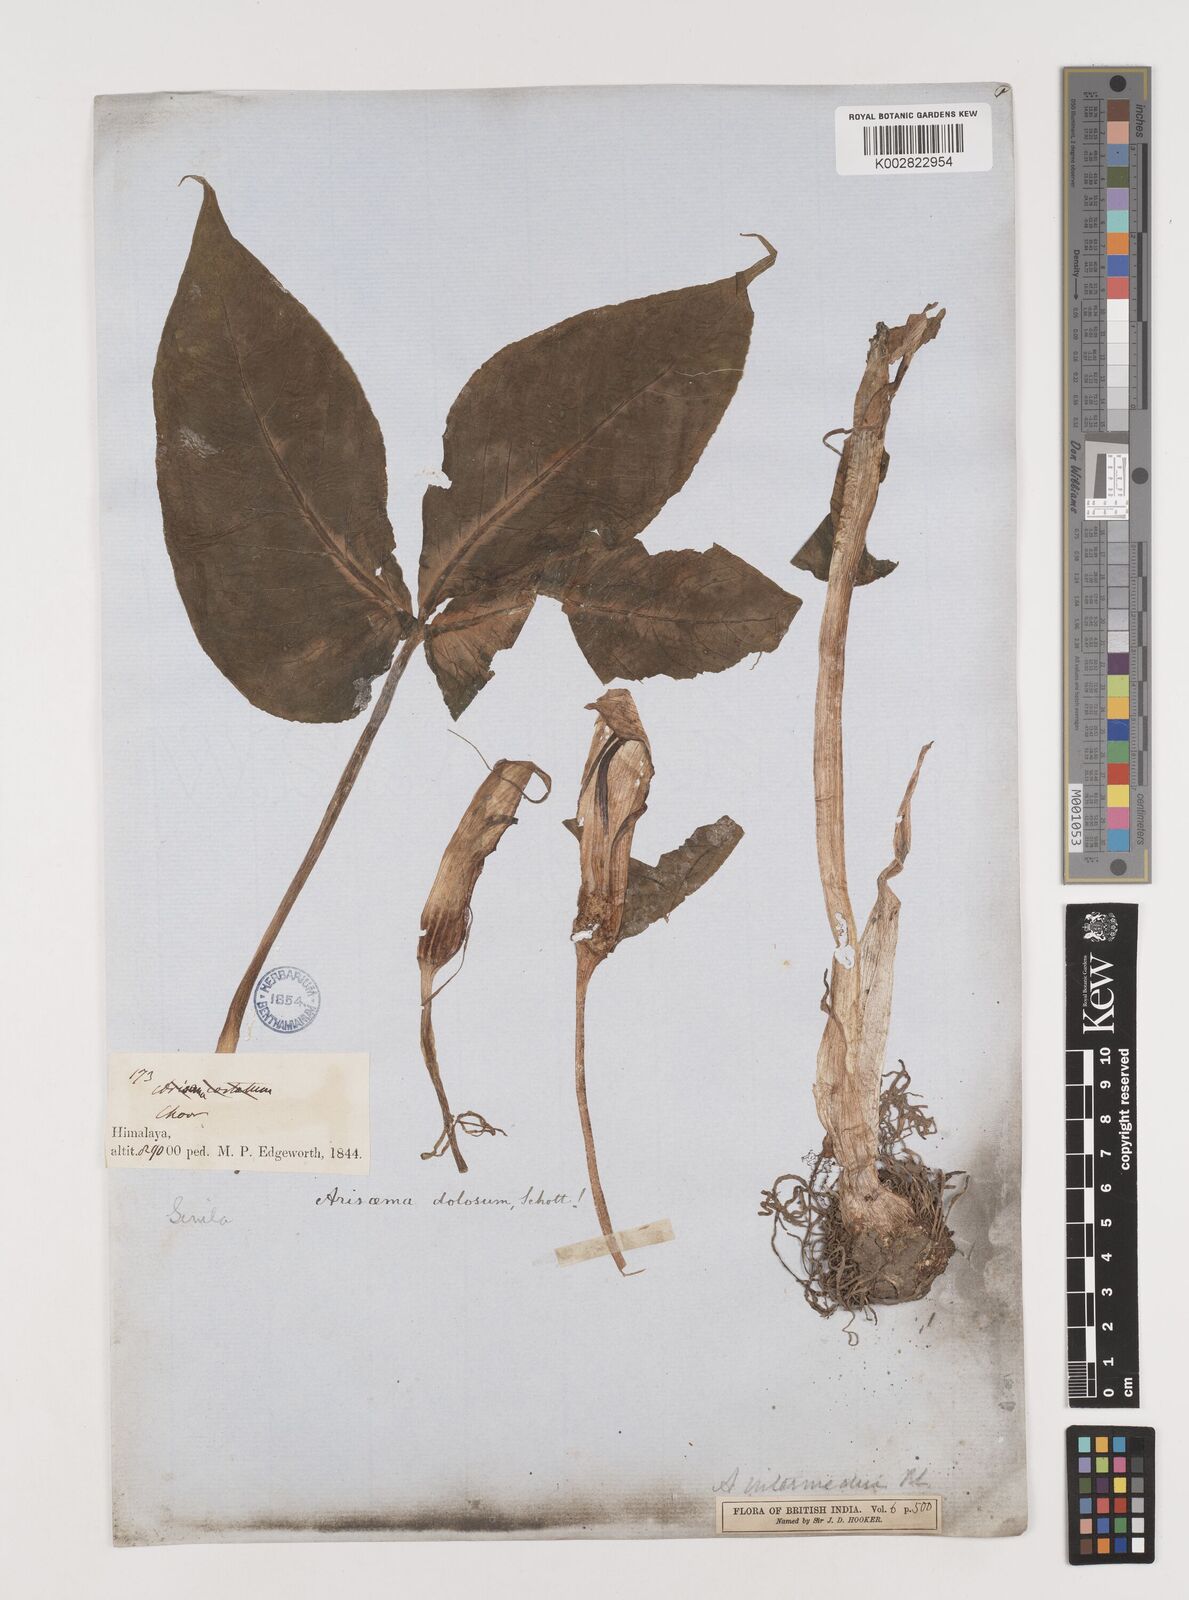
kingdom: Plantae
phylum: Tracheophyta
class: Liliopsida
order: Alismatales
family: Araceae
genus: Arisaema
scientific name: Arisaema intermedium
